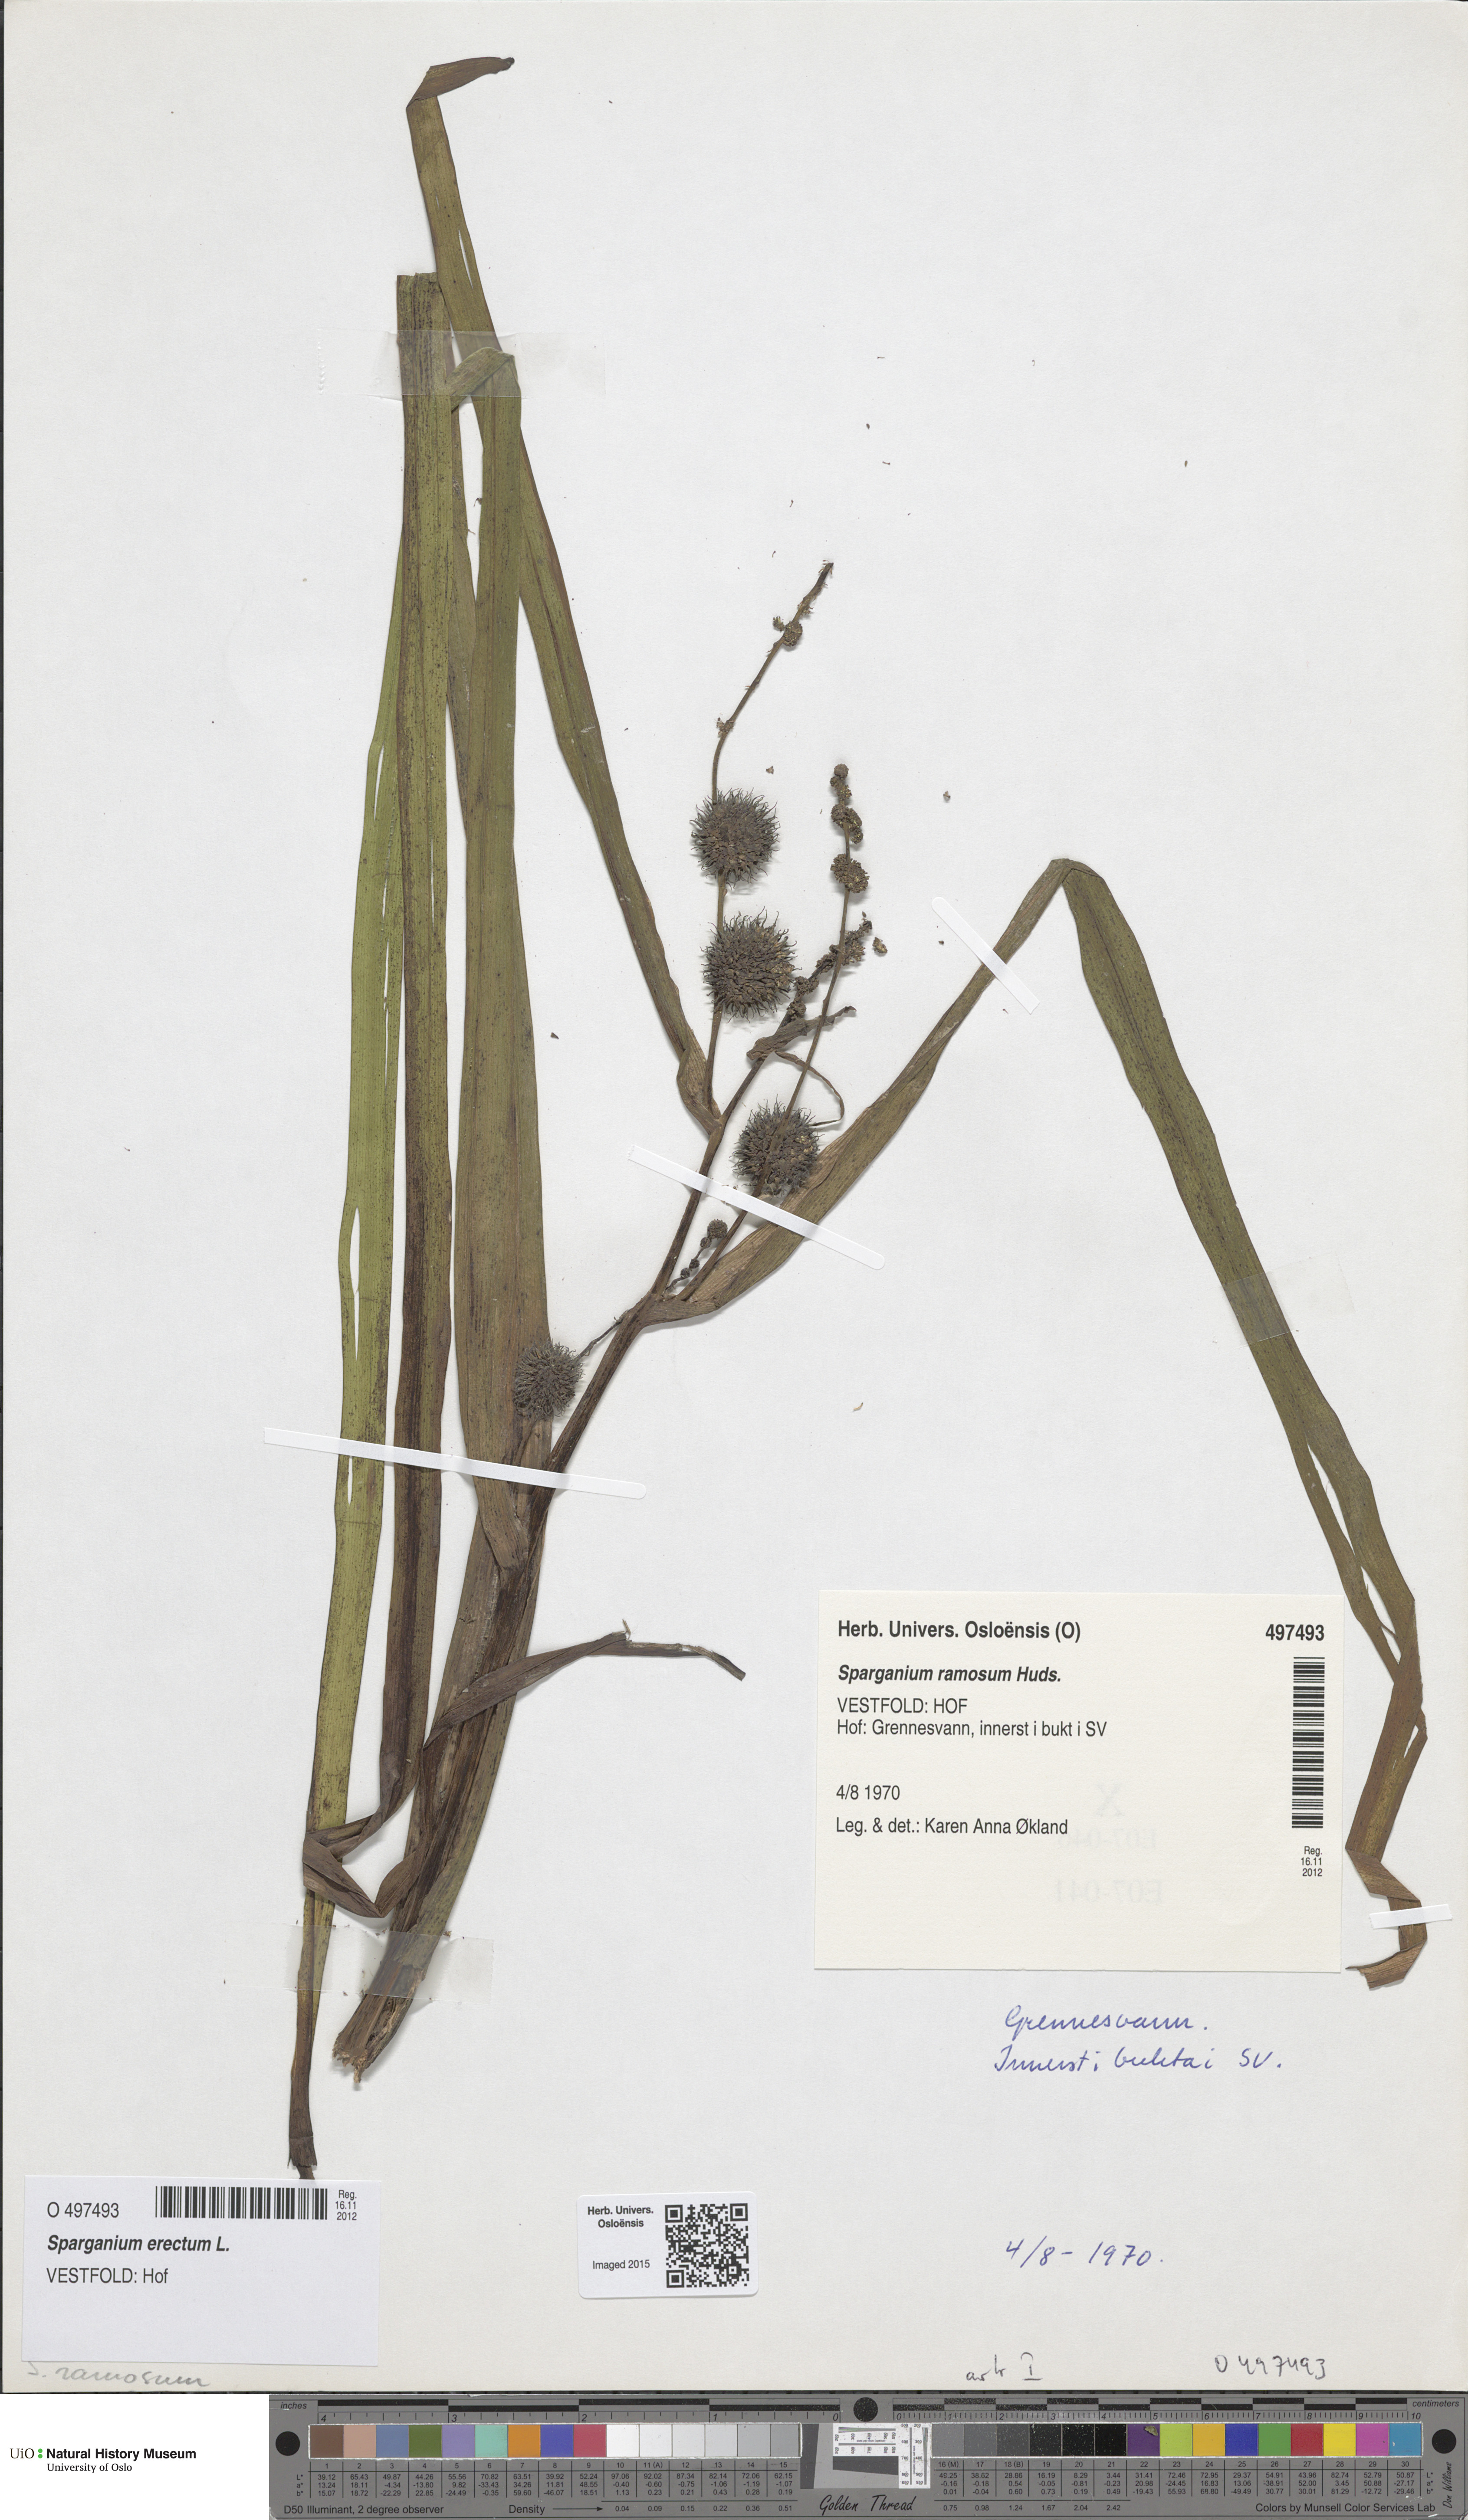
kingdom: Plantae
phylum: Tracheophyta
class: Liliopsida
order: Poales
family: Typhaceae
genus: Sparganium
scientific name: Sparganium erectum
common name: Branched bur-reed
